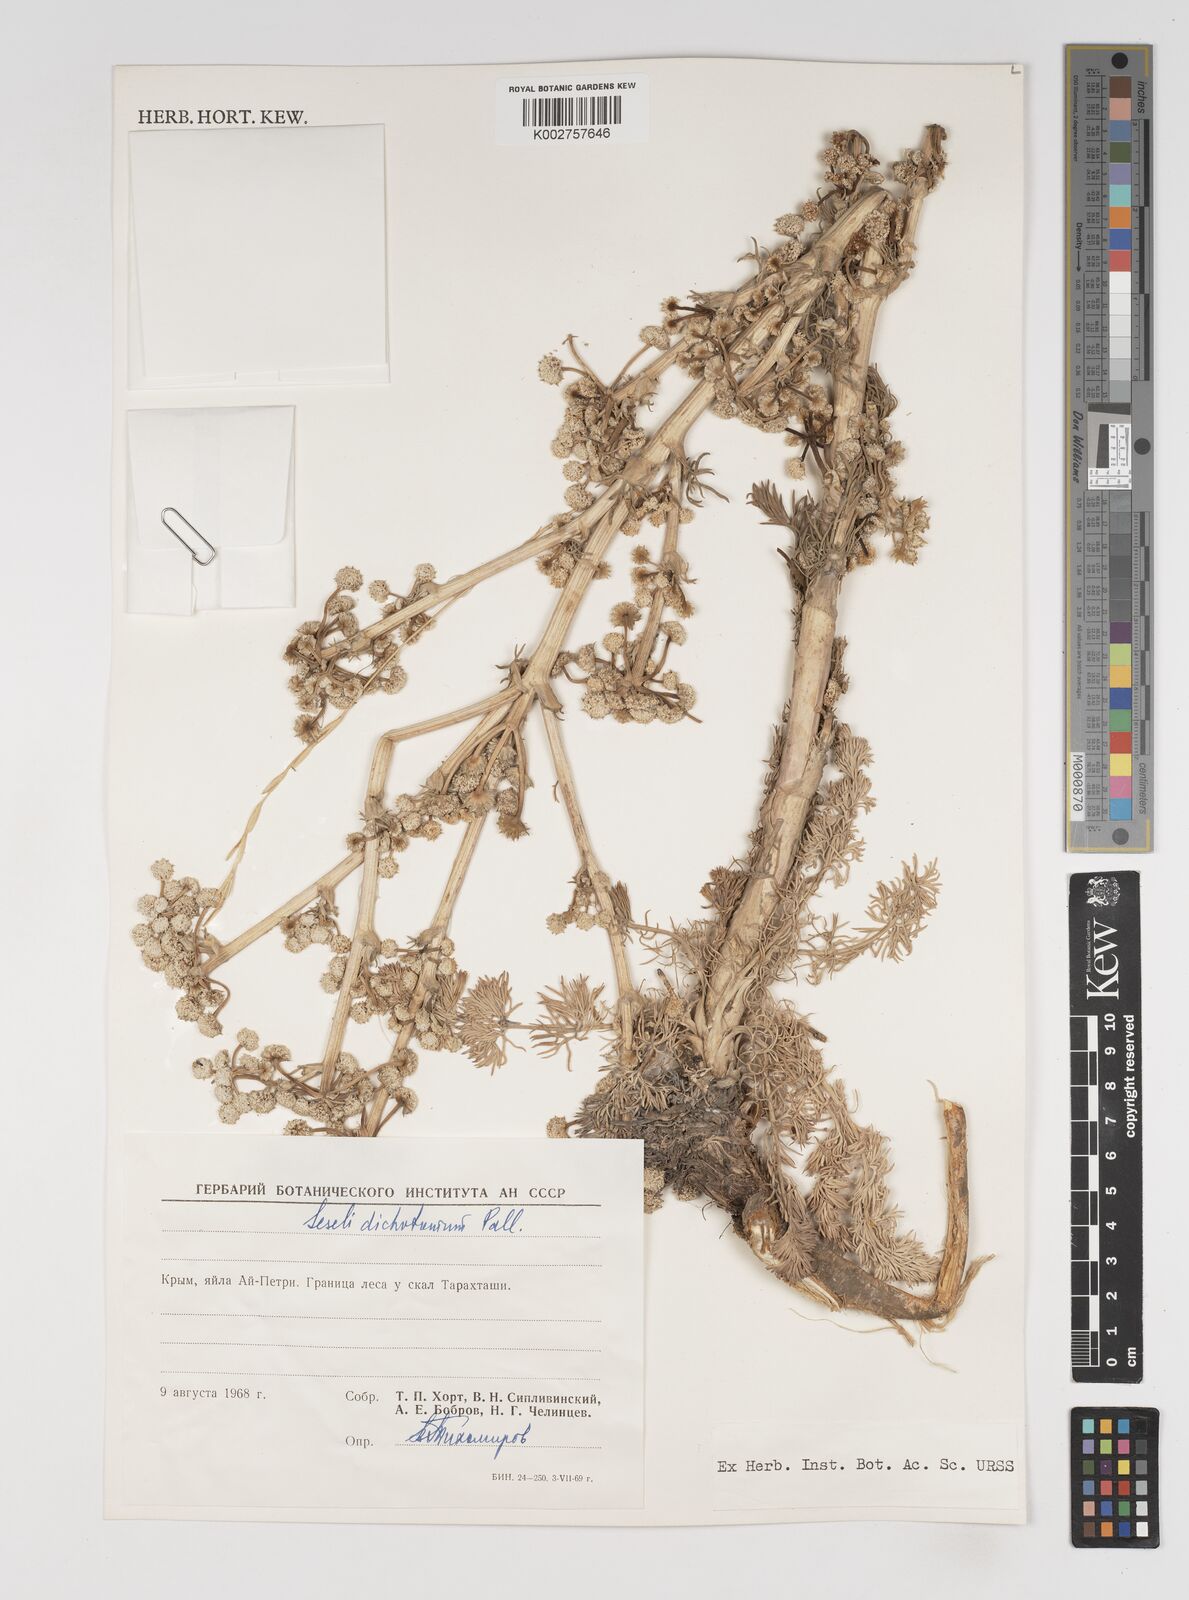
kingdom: Plantae
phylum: Tracheophyta
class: Magnoliopsida
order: Apiales
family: Apiaceae
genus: Hippomarathrum
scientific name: Hippomarathrum dichotomum
